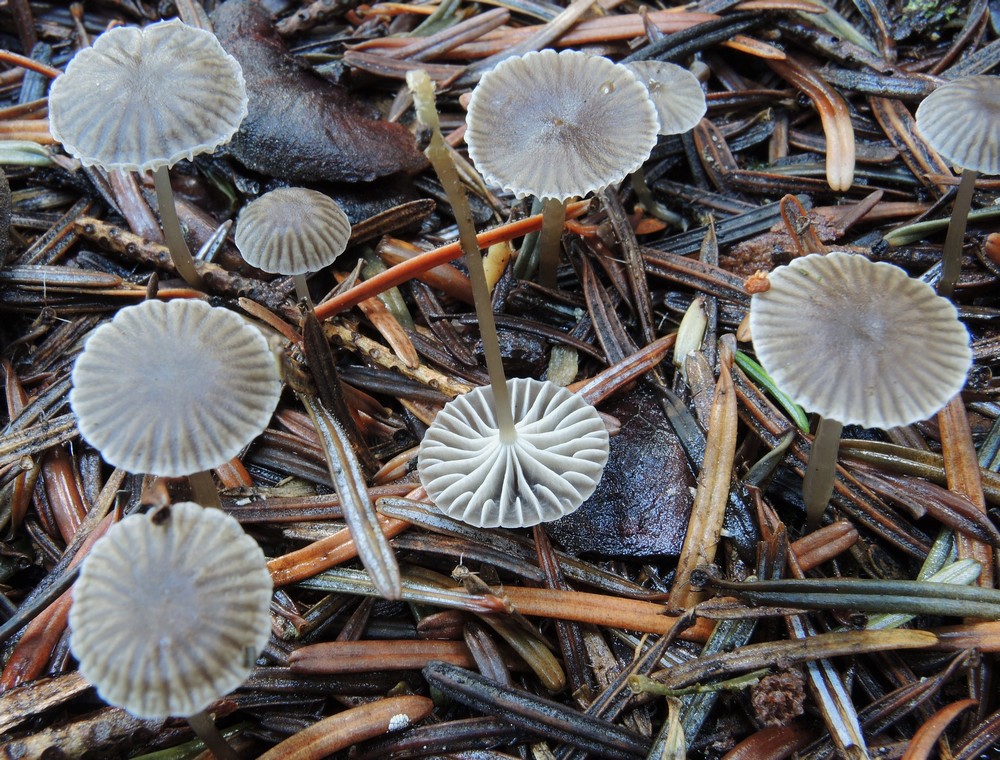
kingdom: Fungi
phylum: Basidiomycota
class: Agaricomycetes
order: Agaricales
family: Mycenaceae
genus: Mycena
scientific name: Mycena cinerella
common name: mel-huesvamp
